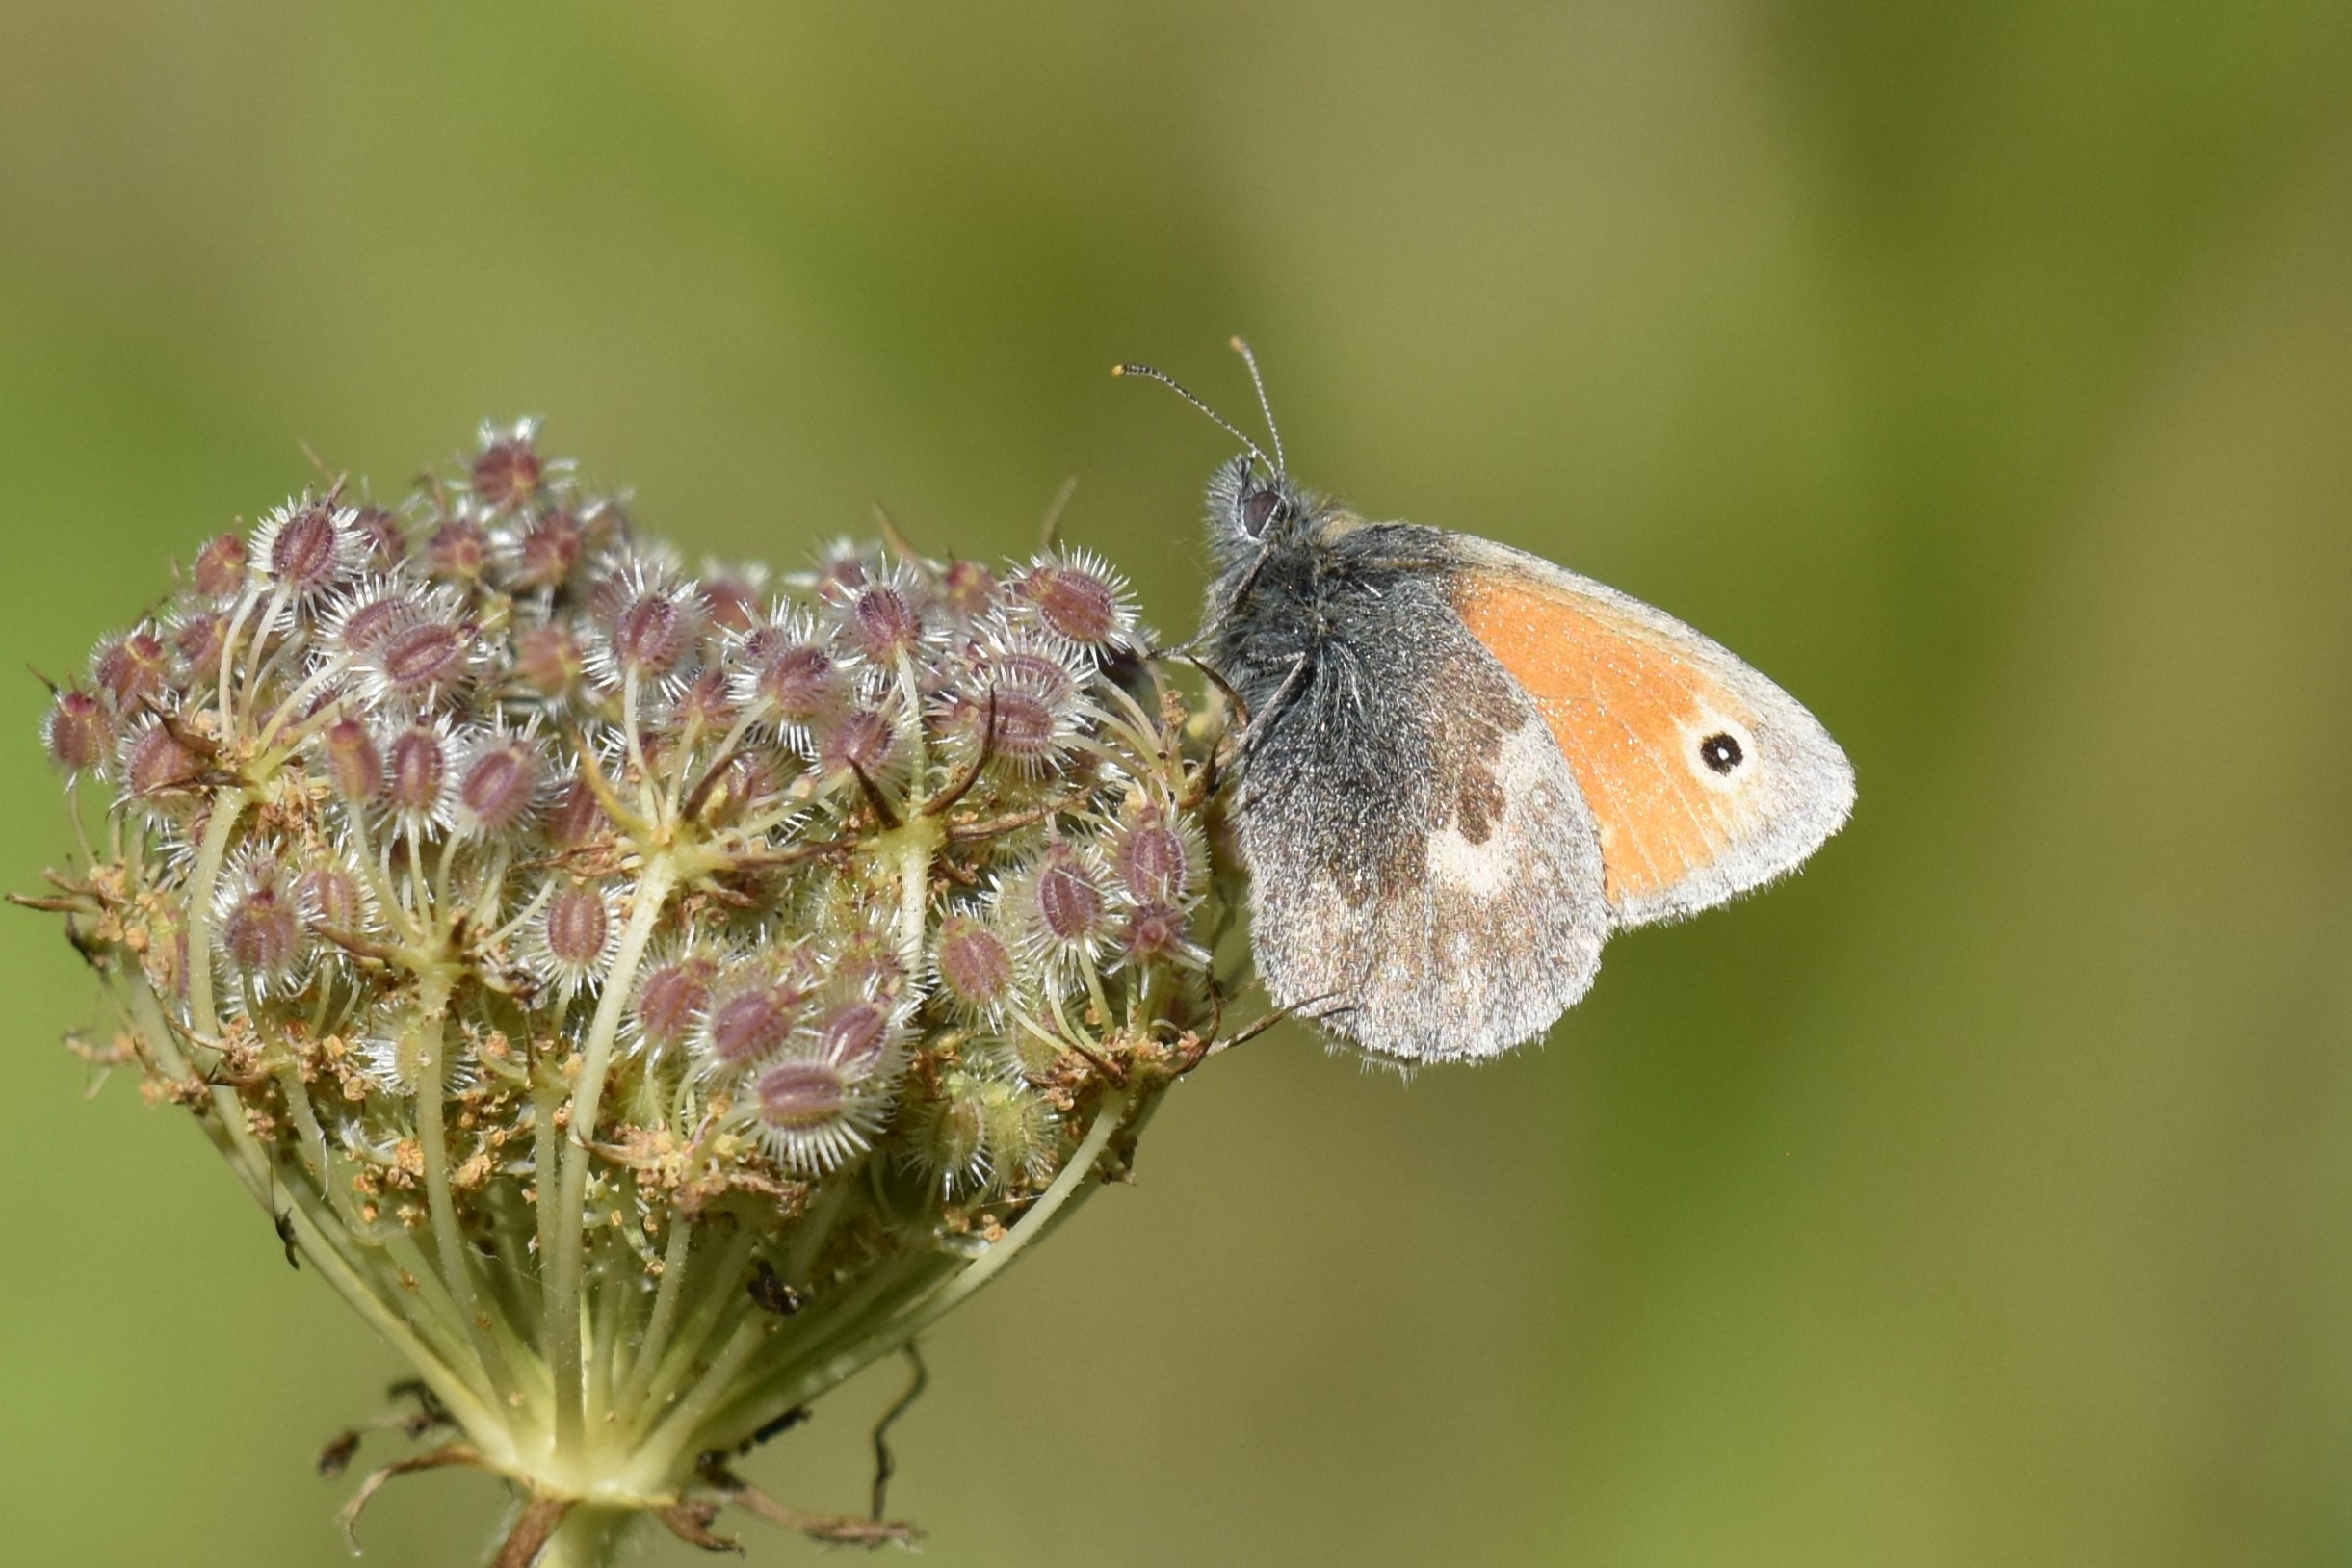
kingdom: Animalia
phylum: Arthropoda
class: Insecta
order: Lepidoptera
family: Nymphalidae
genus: Coenonympha
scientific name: Coenonympha pamphilus
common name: Okkergul randøje
